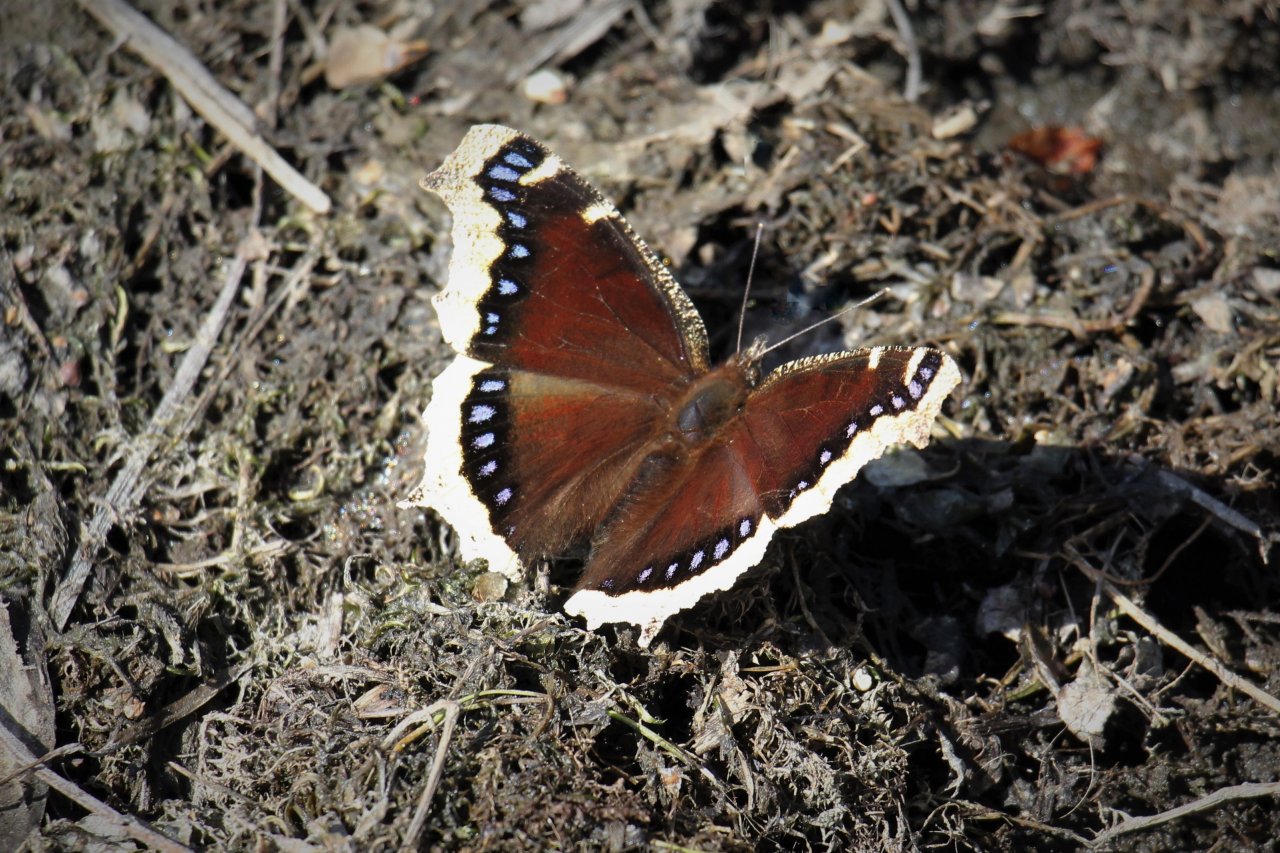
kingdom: Animalia
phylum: Arthropoda
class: Insecta
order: Lepidoptera
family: Nymphalidae
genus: Nymphalis
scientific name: Nymphalis antiopa
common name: Mourning Cloak
